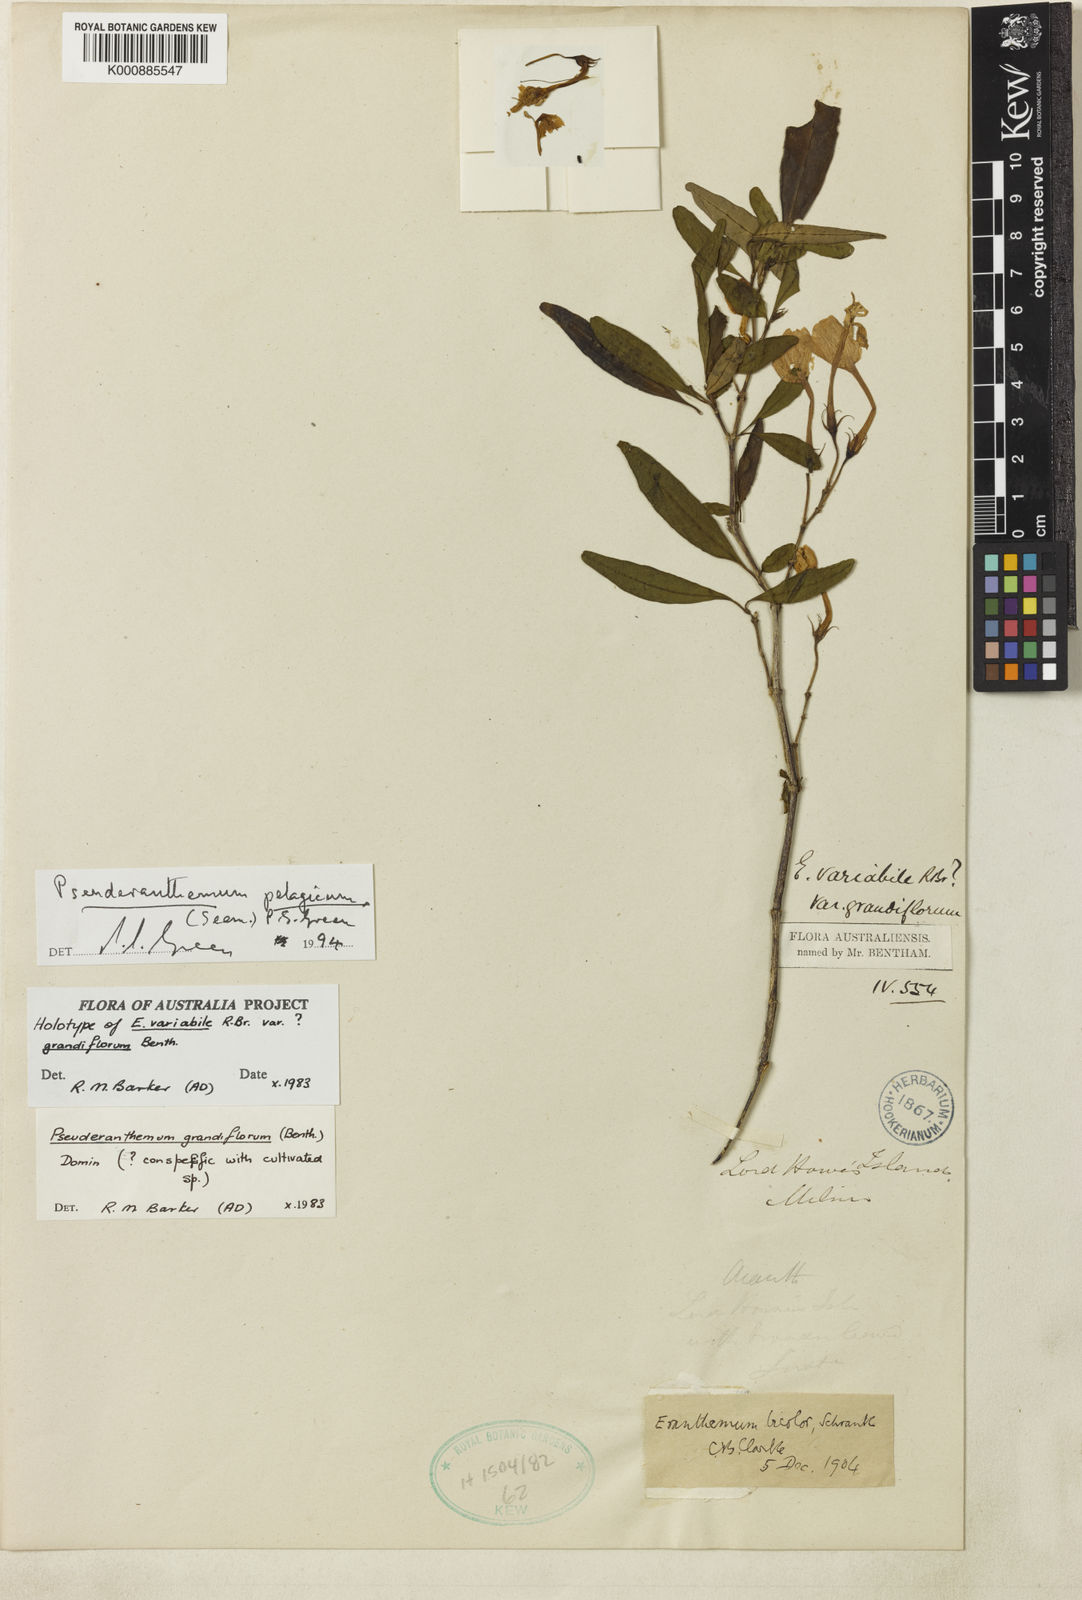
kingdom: Plantae
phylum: Tracheophyta
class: Magnoliopsida
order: Lamiales
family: Acanthaceae
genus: Pseuderanthemum
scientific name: Pseuderanthemum pelagicum
